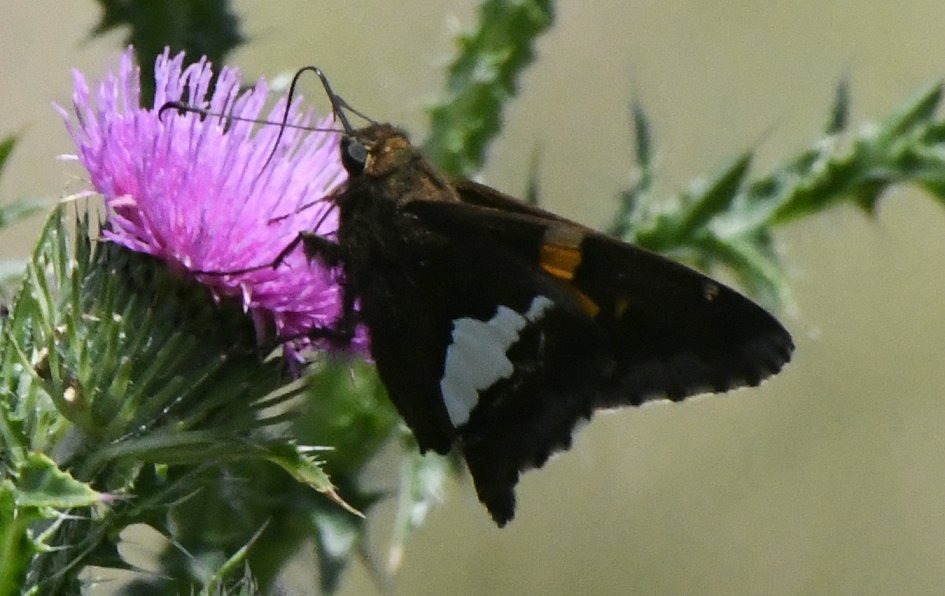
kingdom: Animalia
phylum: Arthropoda
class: Insecta
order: Lepidoptera
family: Hesperiidae
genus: Epargyreus
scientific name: Epargyreus clarus
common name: Silver-spotted Skipper
